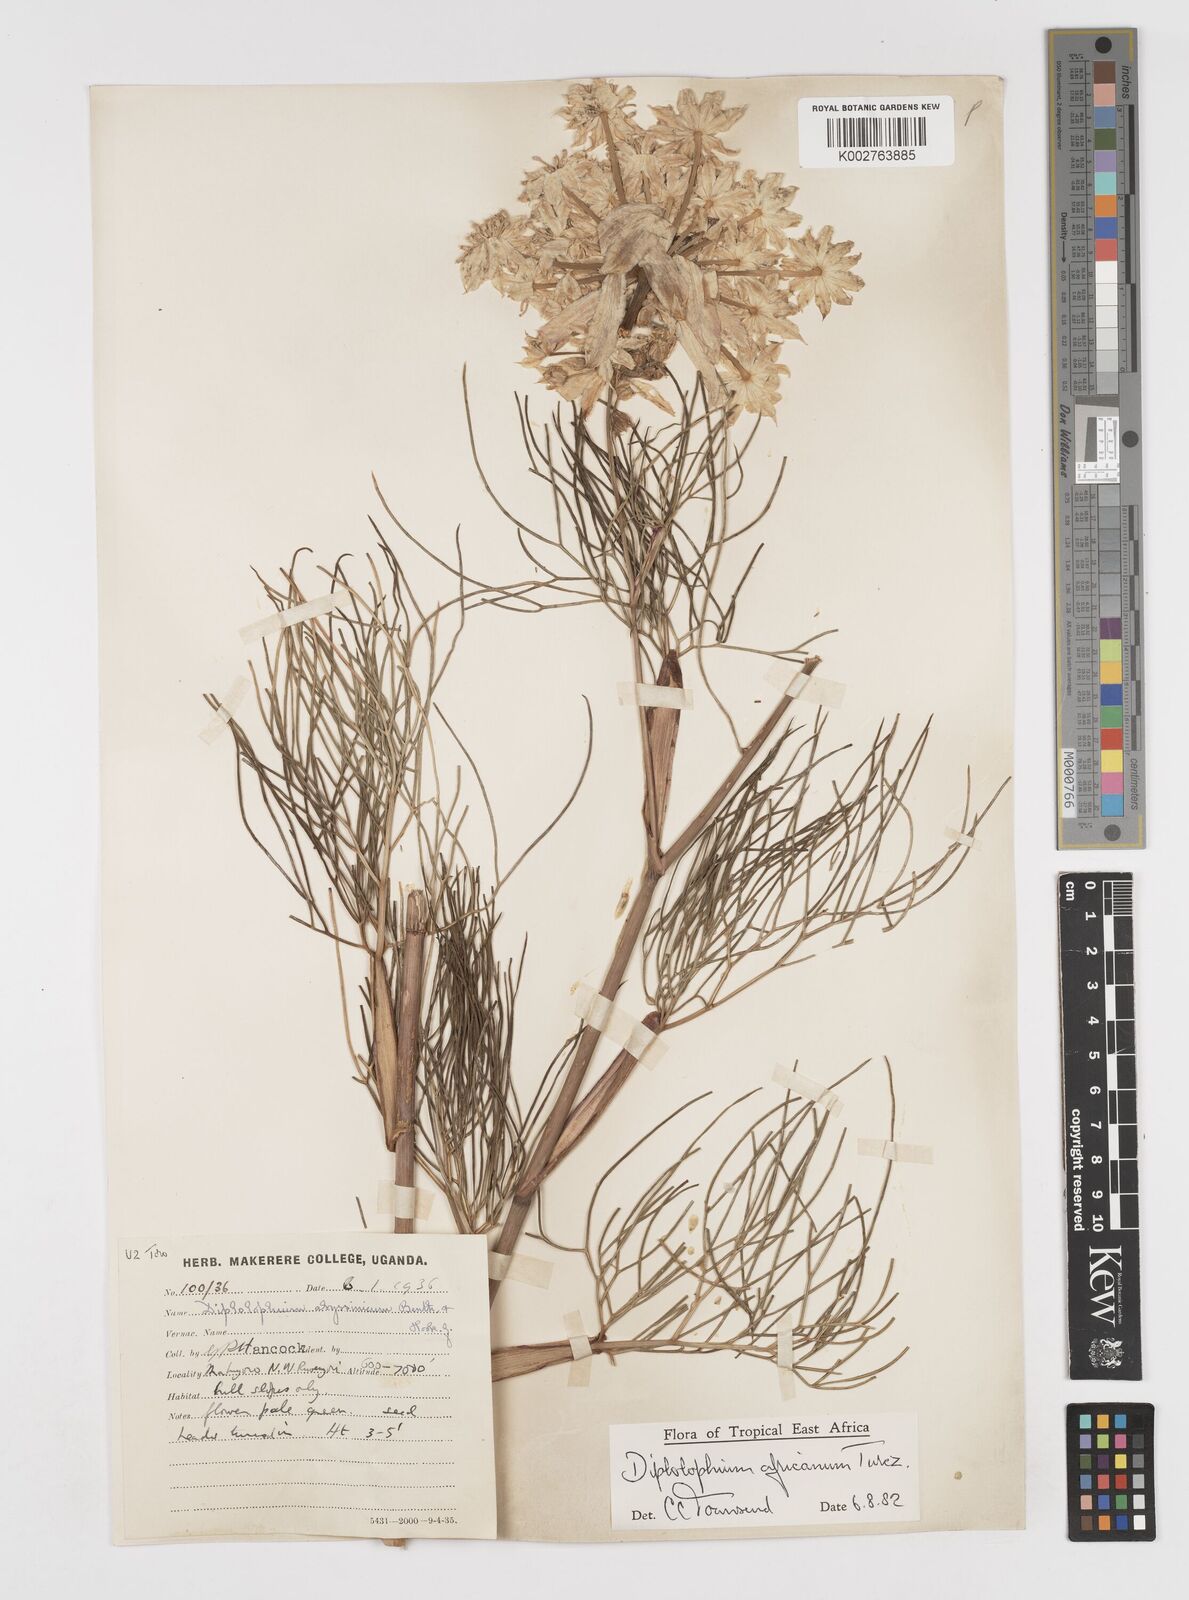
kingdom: Plantae
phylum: Tracheophyta
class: Magnoliopsida
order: Apiales
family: Apiaceae
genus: Diplolophium
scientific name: Diplolophium africanum
